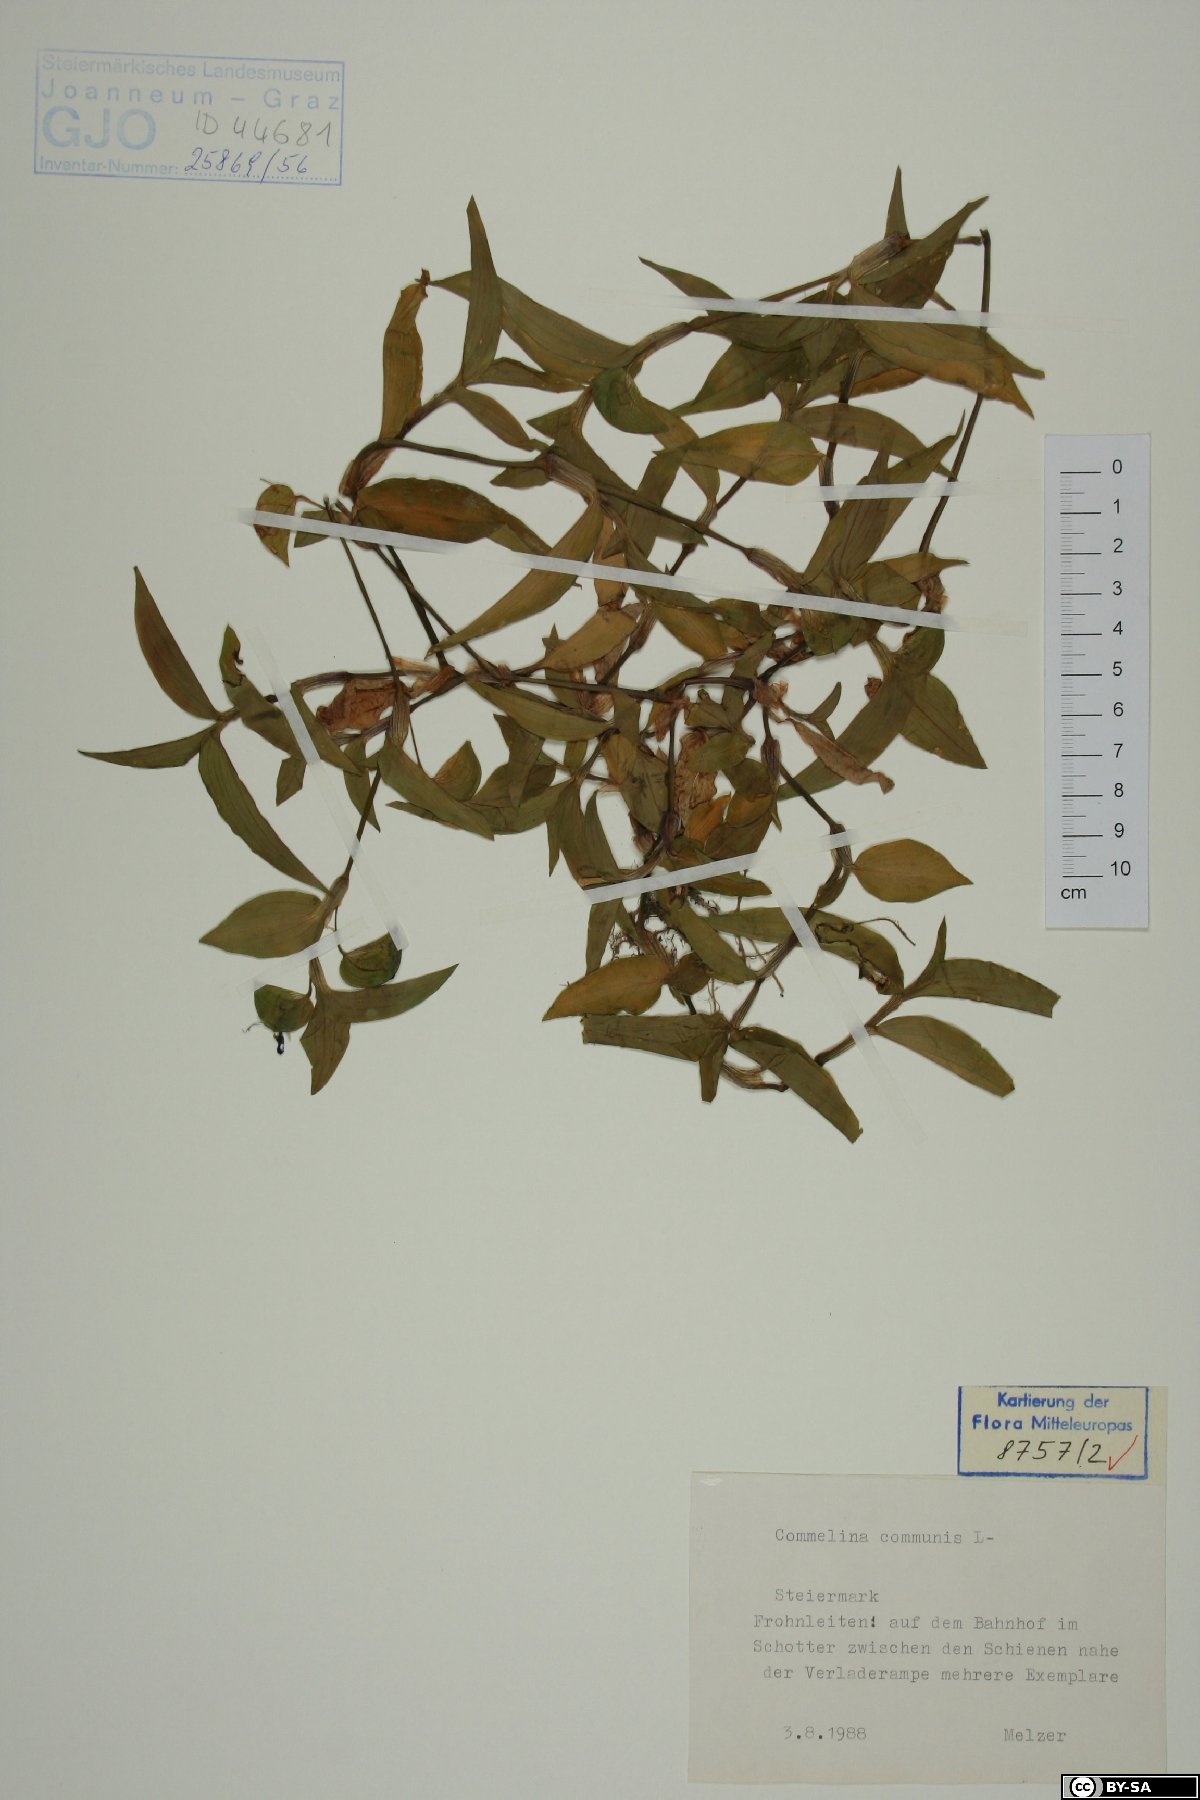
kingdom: Plantae
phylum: Tracheophyta
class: Liliopsida
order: Commelinales
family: Commelinaceae
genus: Commelina
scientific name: Commelina communis
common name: Asiatic dayflower
